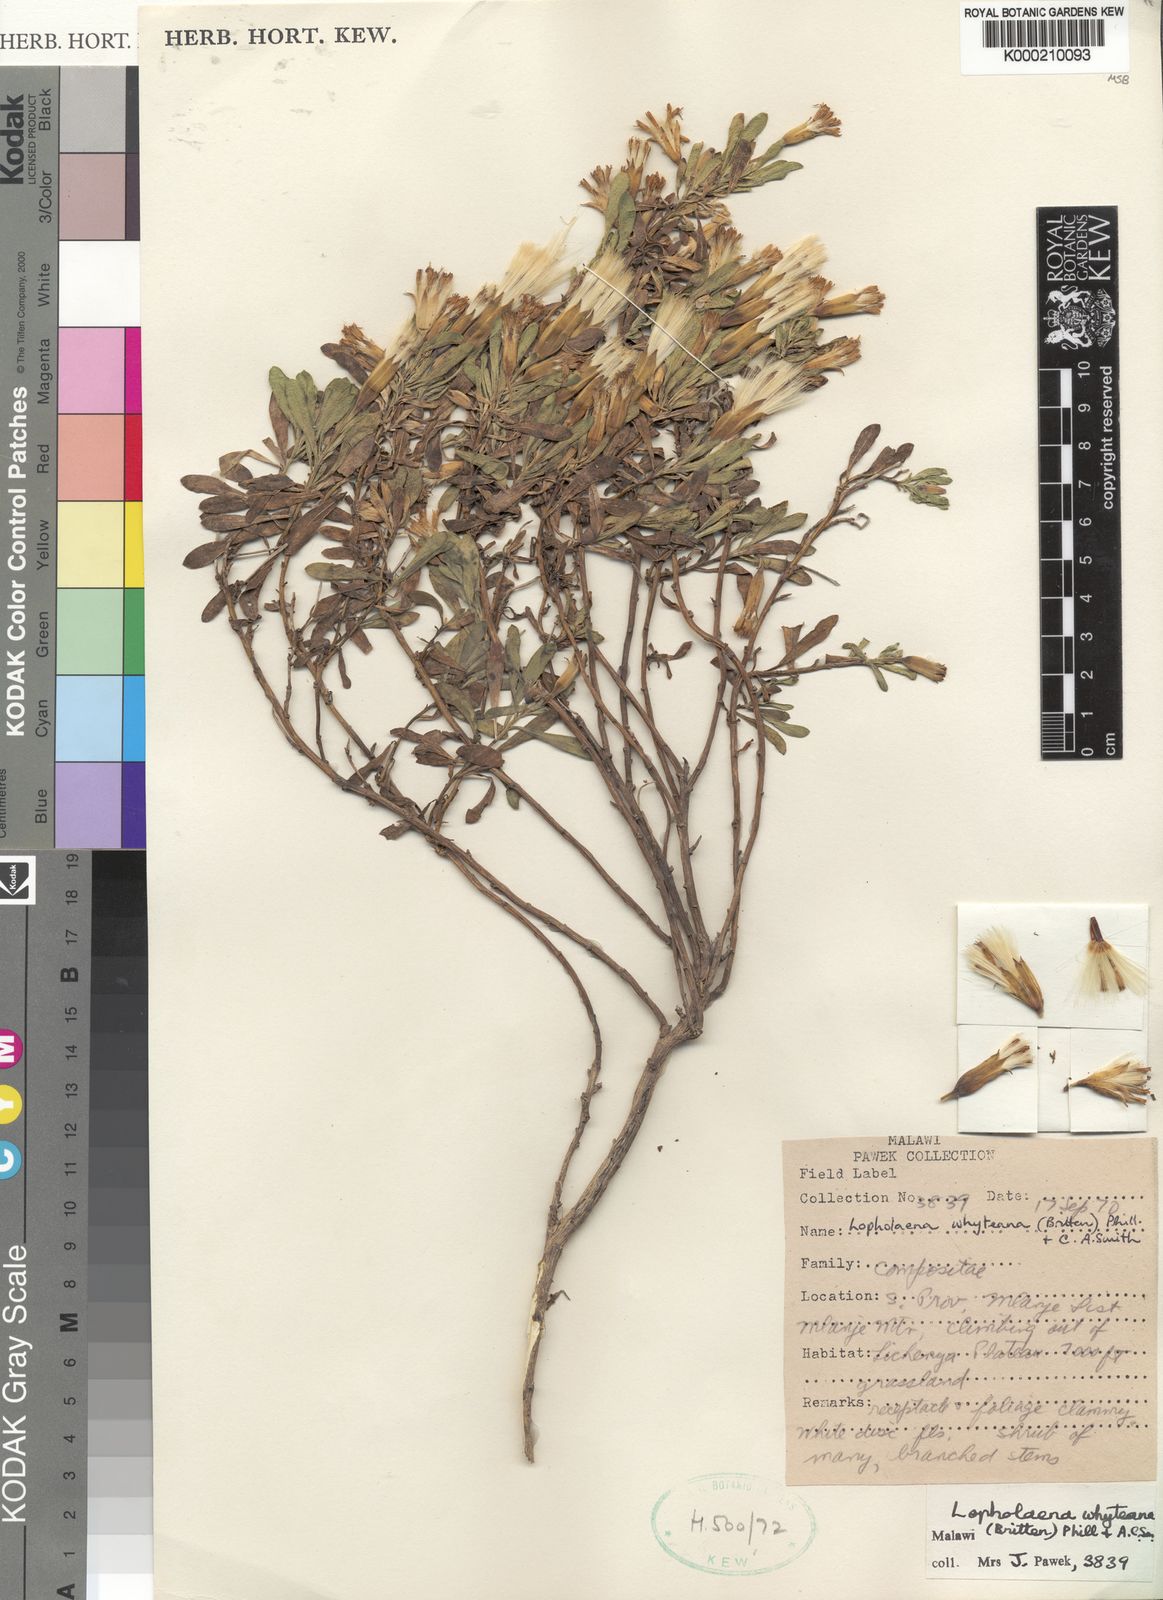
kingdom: Plantae
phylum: Tracheophyta
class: Magnoliopsida
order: Asterales
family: Asteraceae
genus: Lopholaena
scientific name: Lopholaena whyteana
